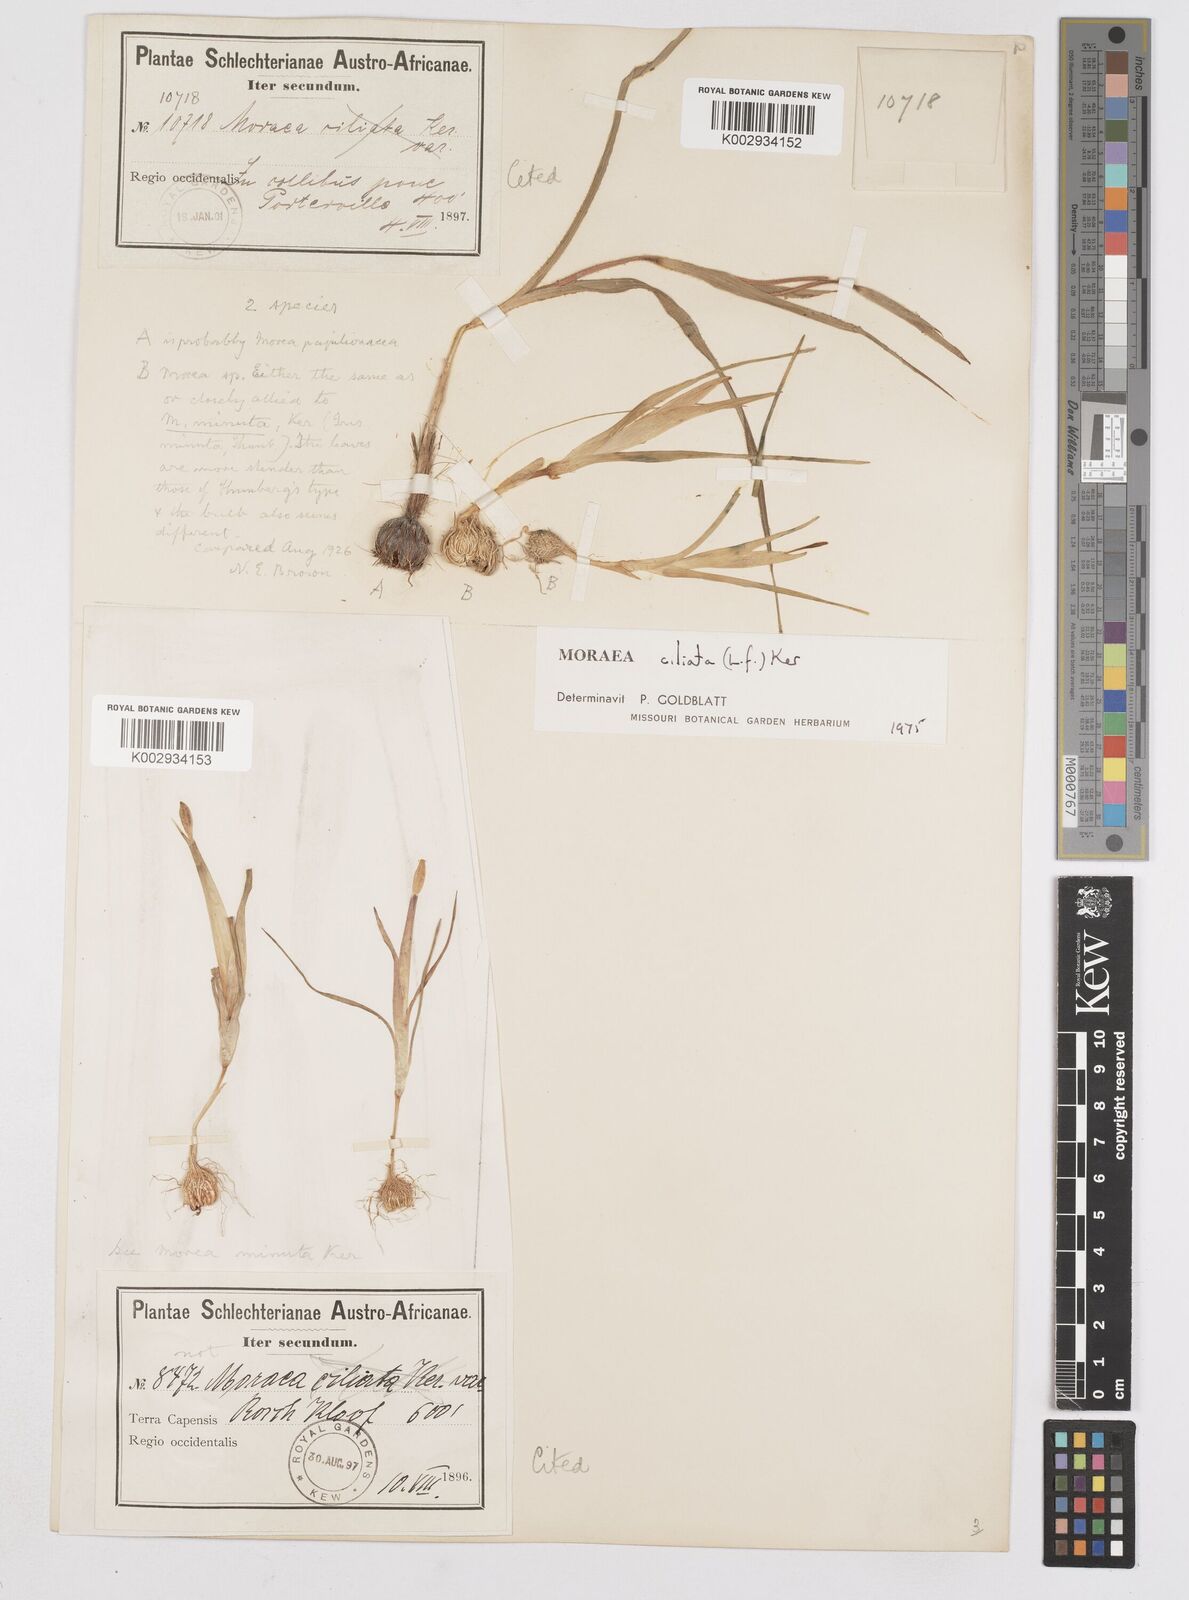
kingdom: Plantae
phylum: Tracheophyta
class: Liliopsida
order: Asparagales
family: Iridaceae
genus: Moraea
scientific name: Moraea ciliata
